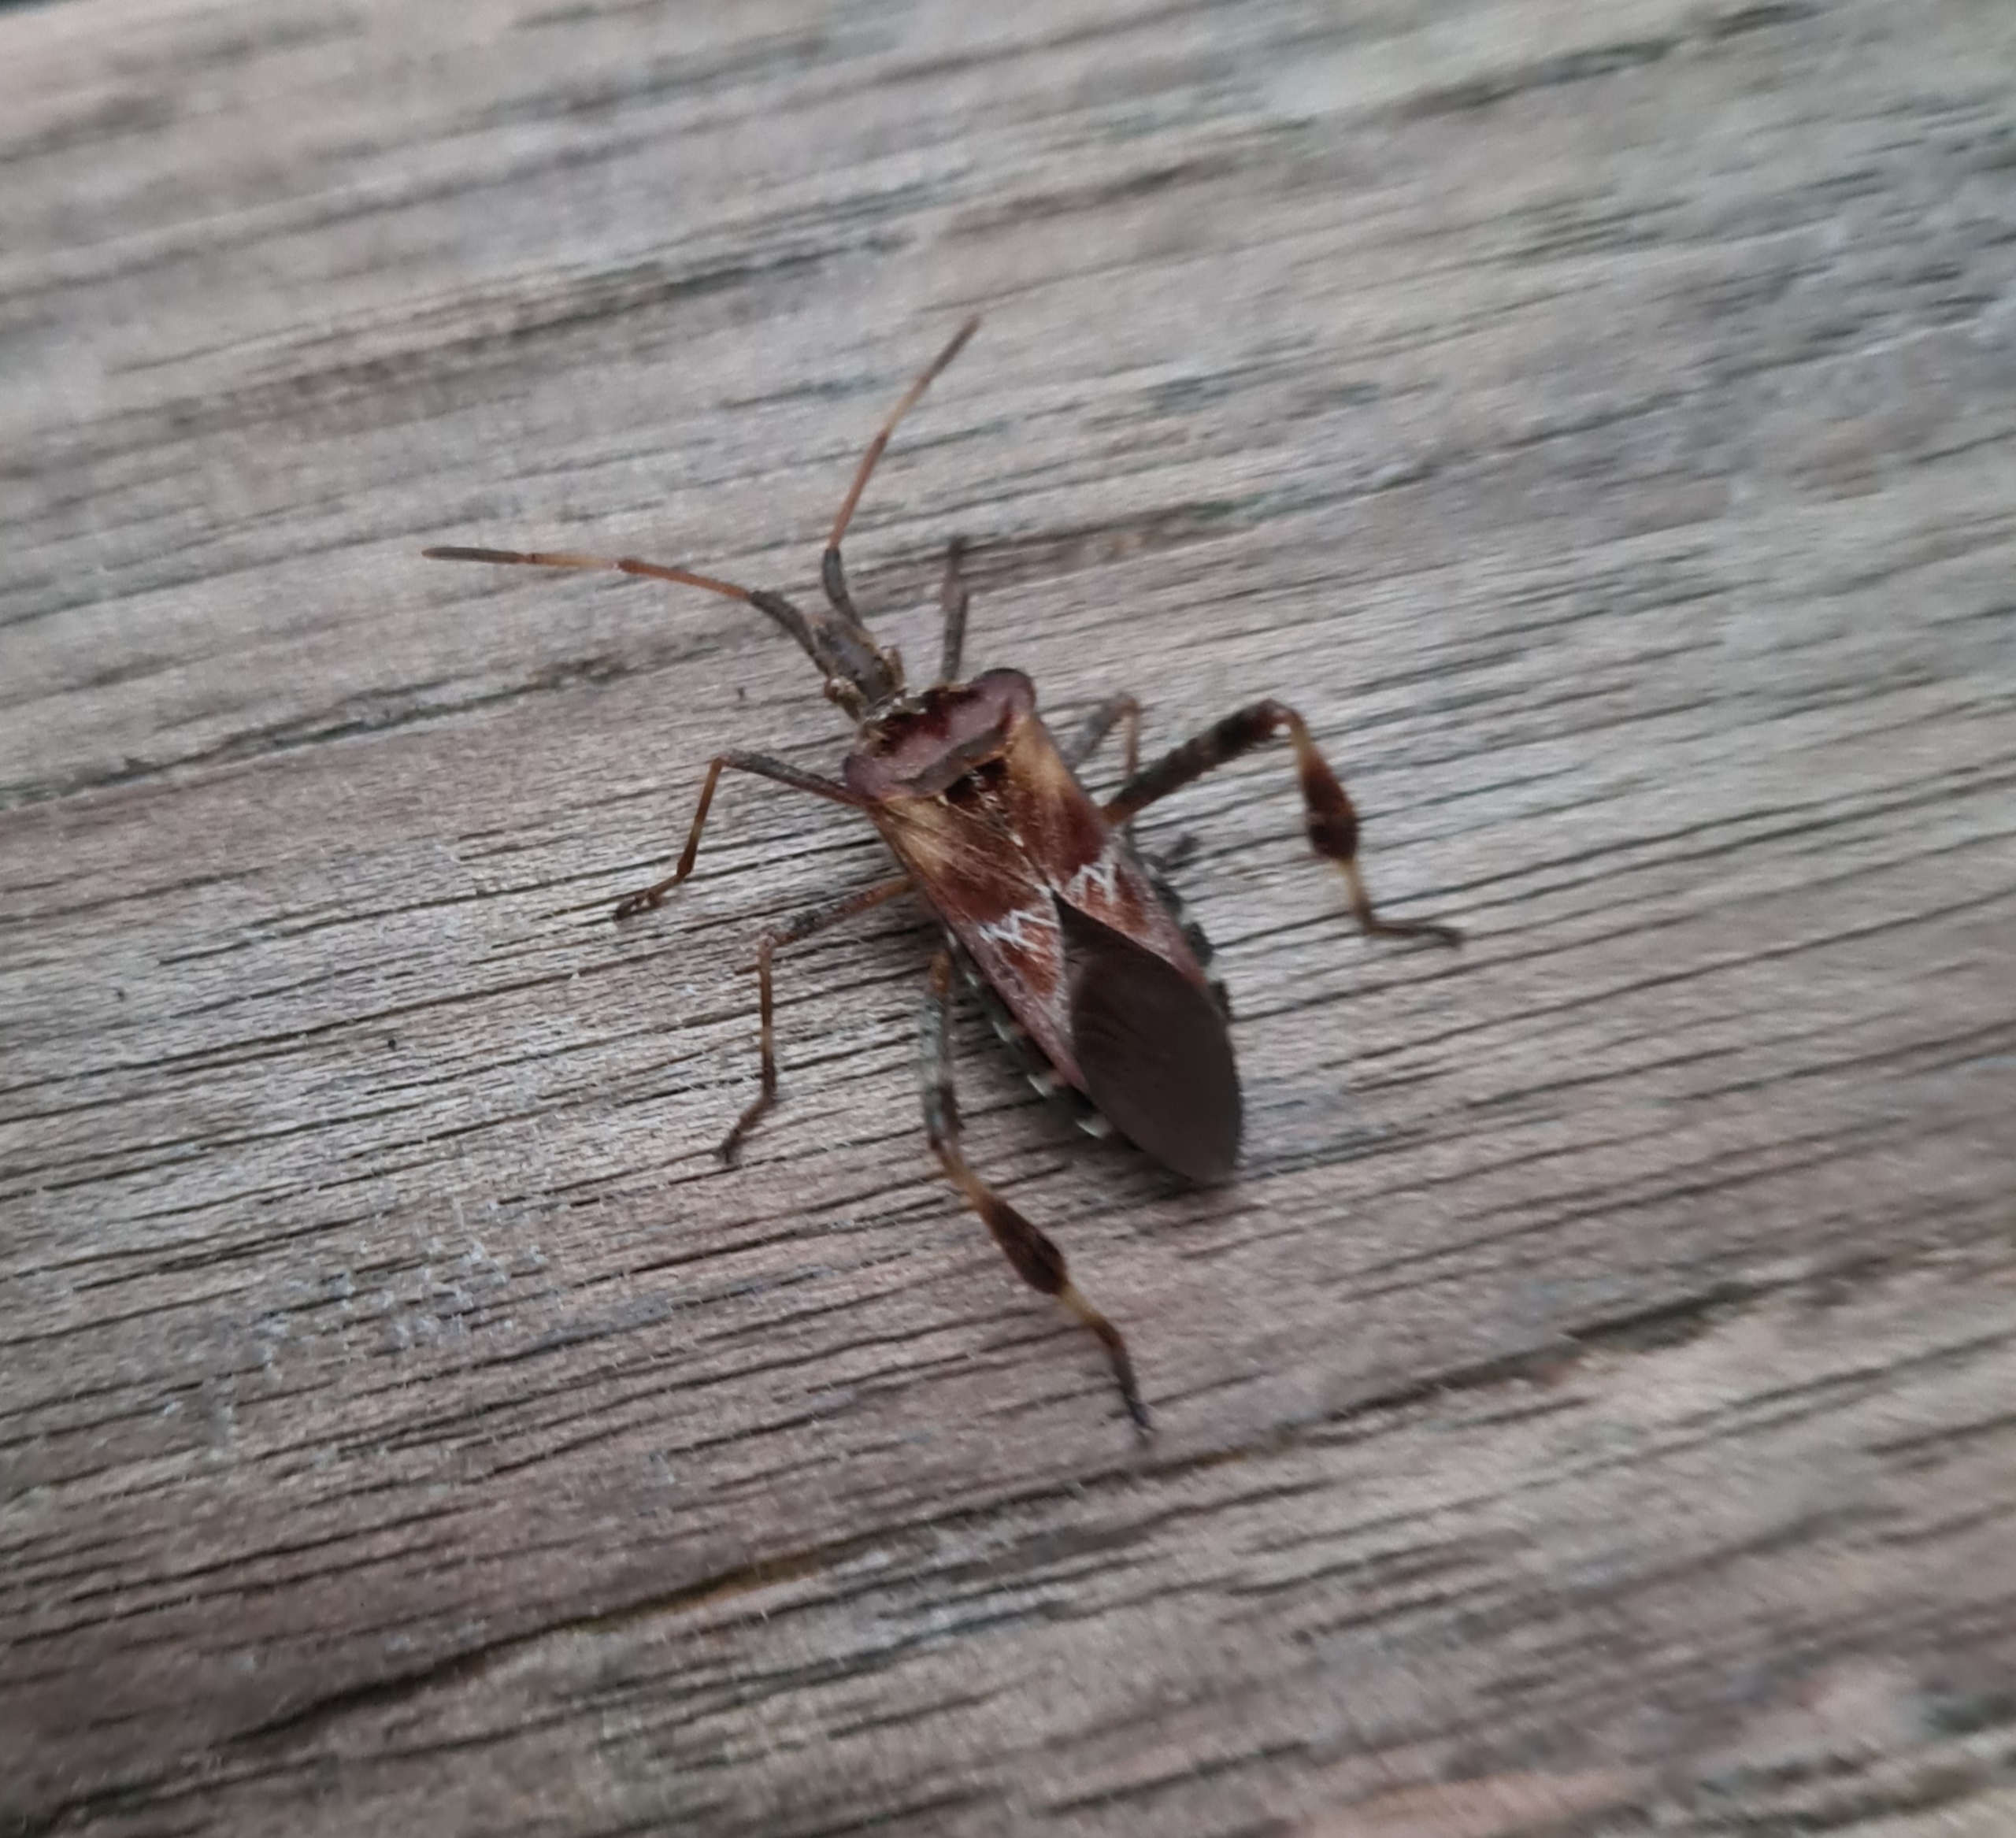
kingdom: Animalia
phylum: Arthropoda
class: Insecta
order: Hemiptera
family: Coreidae
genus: Leptoglossus
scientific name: Leptoglossus occidentalis
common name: Amerikansk fyrretæge
